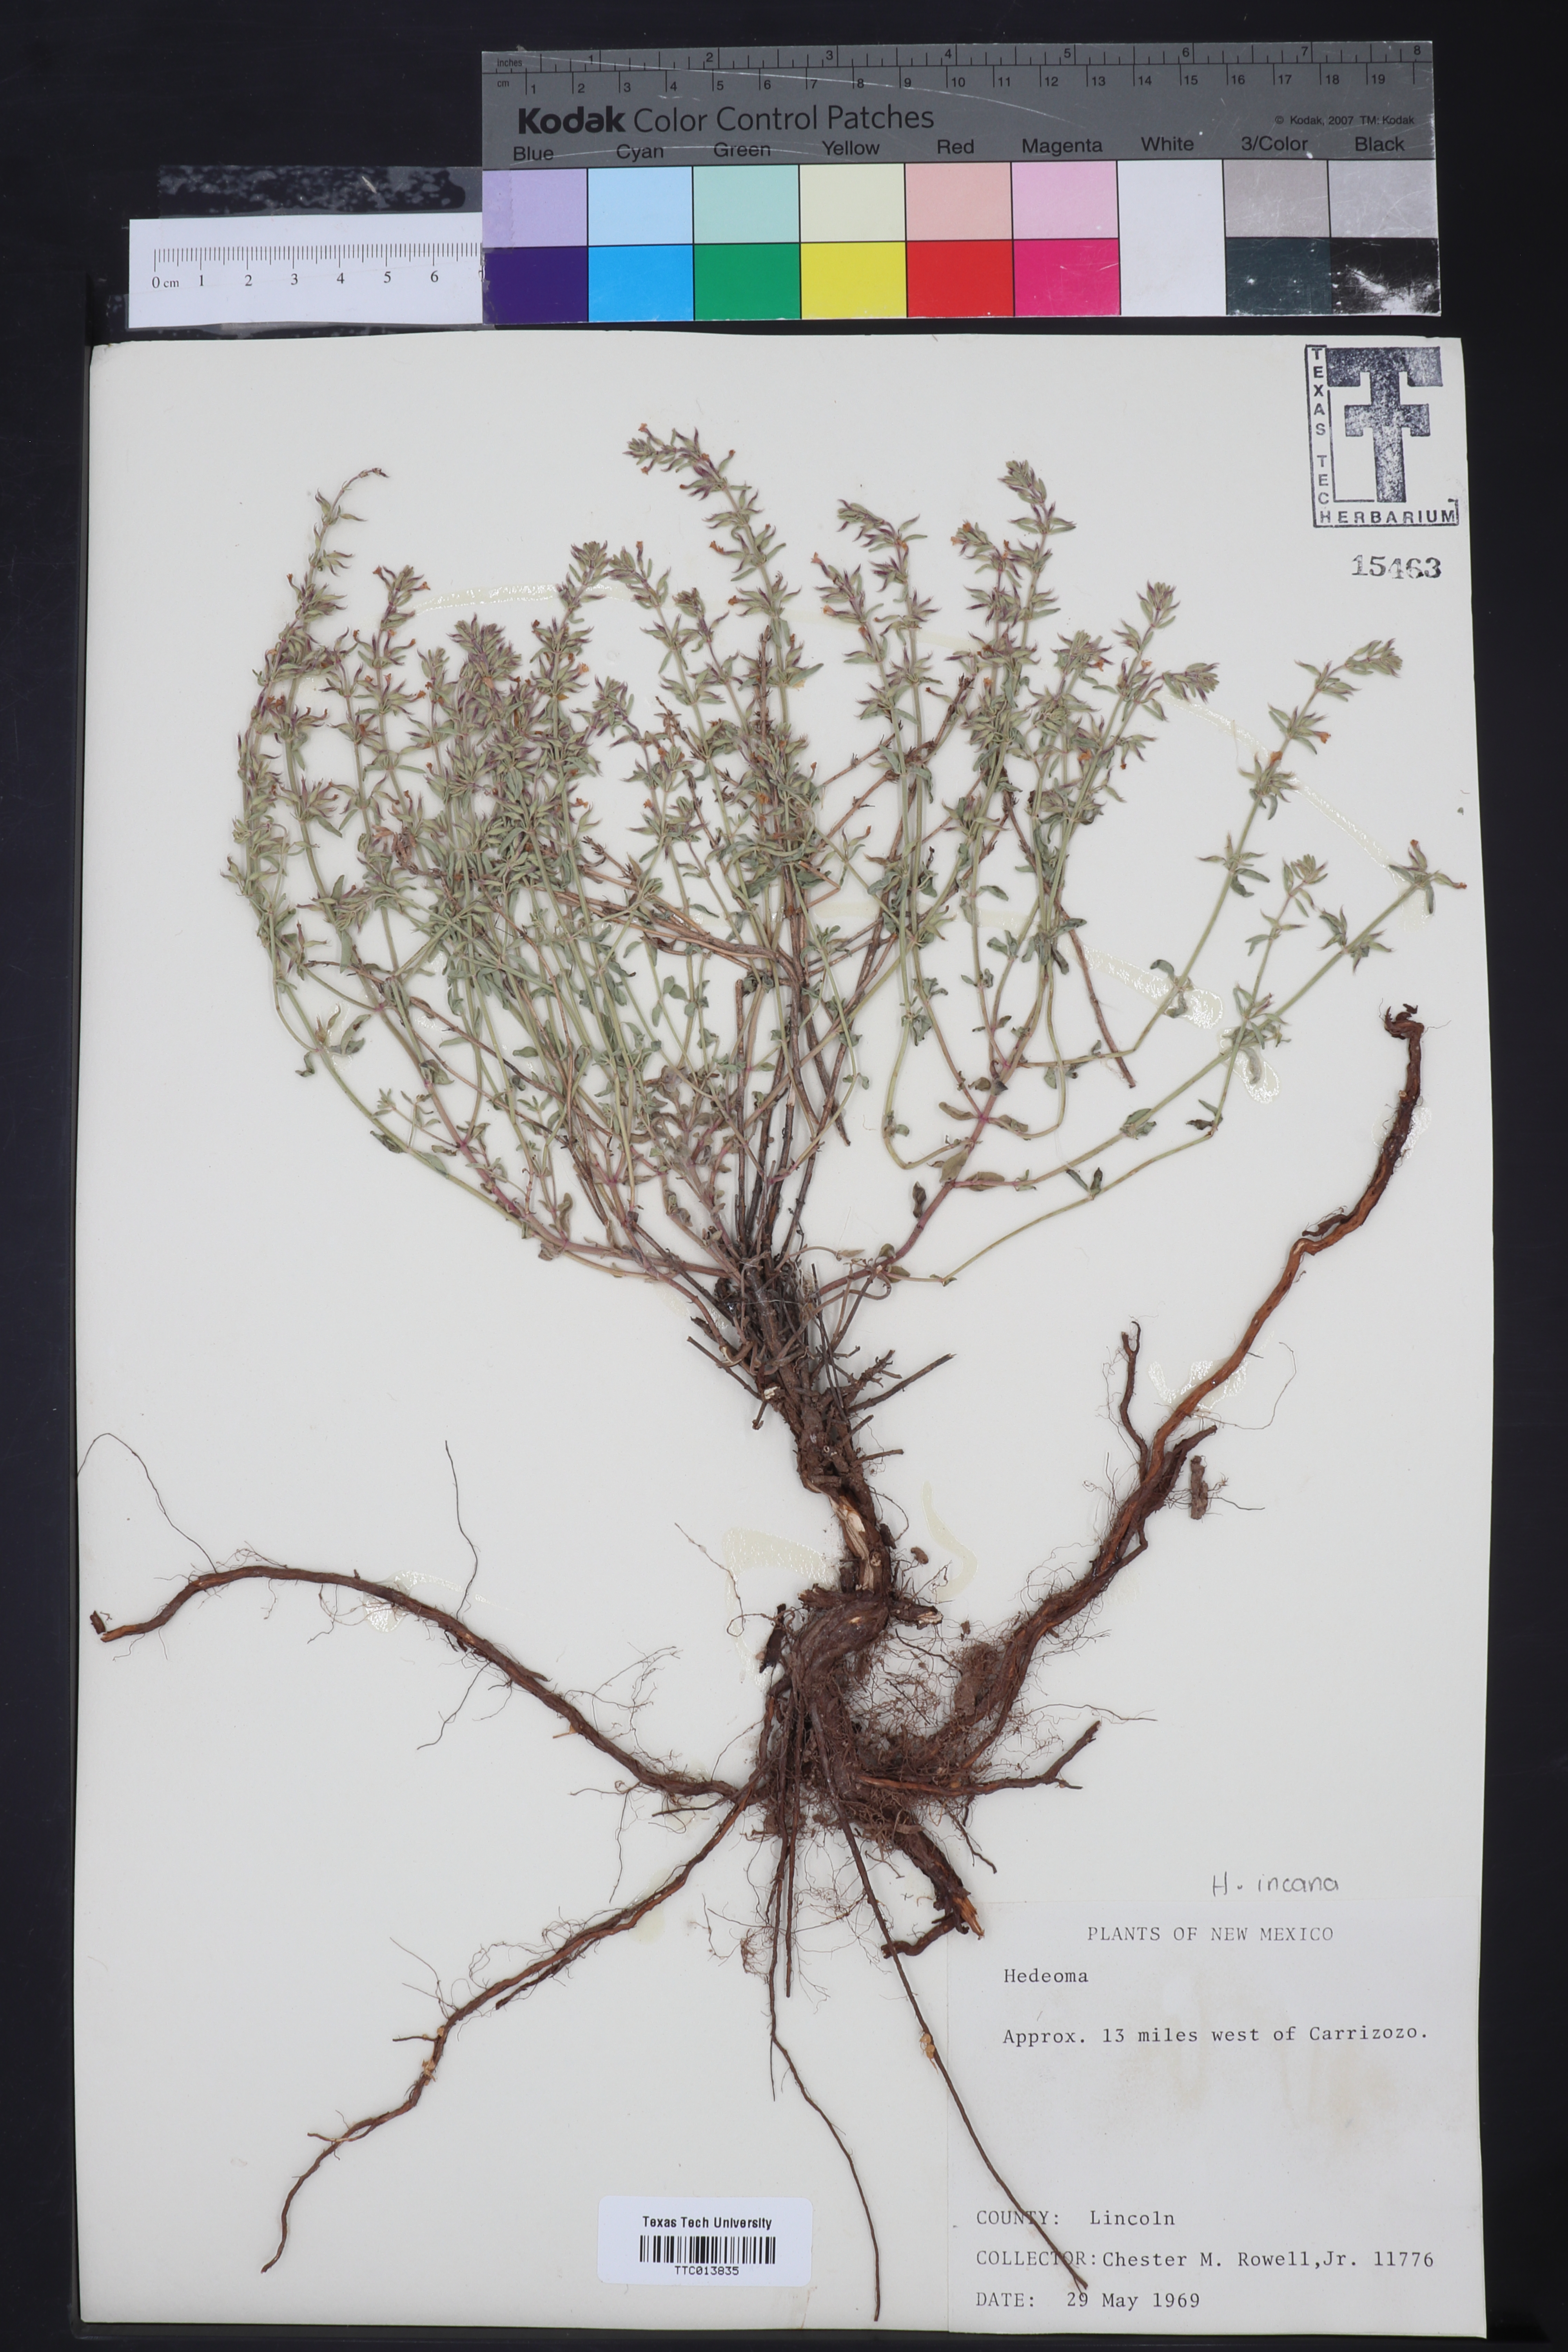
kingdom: Plantae
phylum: Tracheophyta
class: Magnoliopsida
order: Lamiales
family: Lamiaceae
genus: Hedeoma
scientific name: Hedeoma
